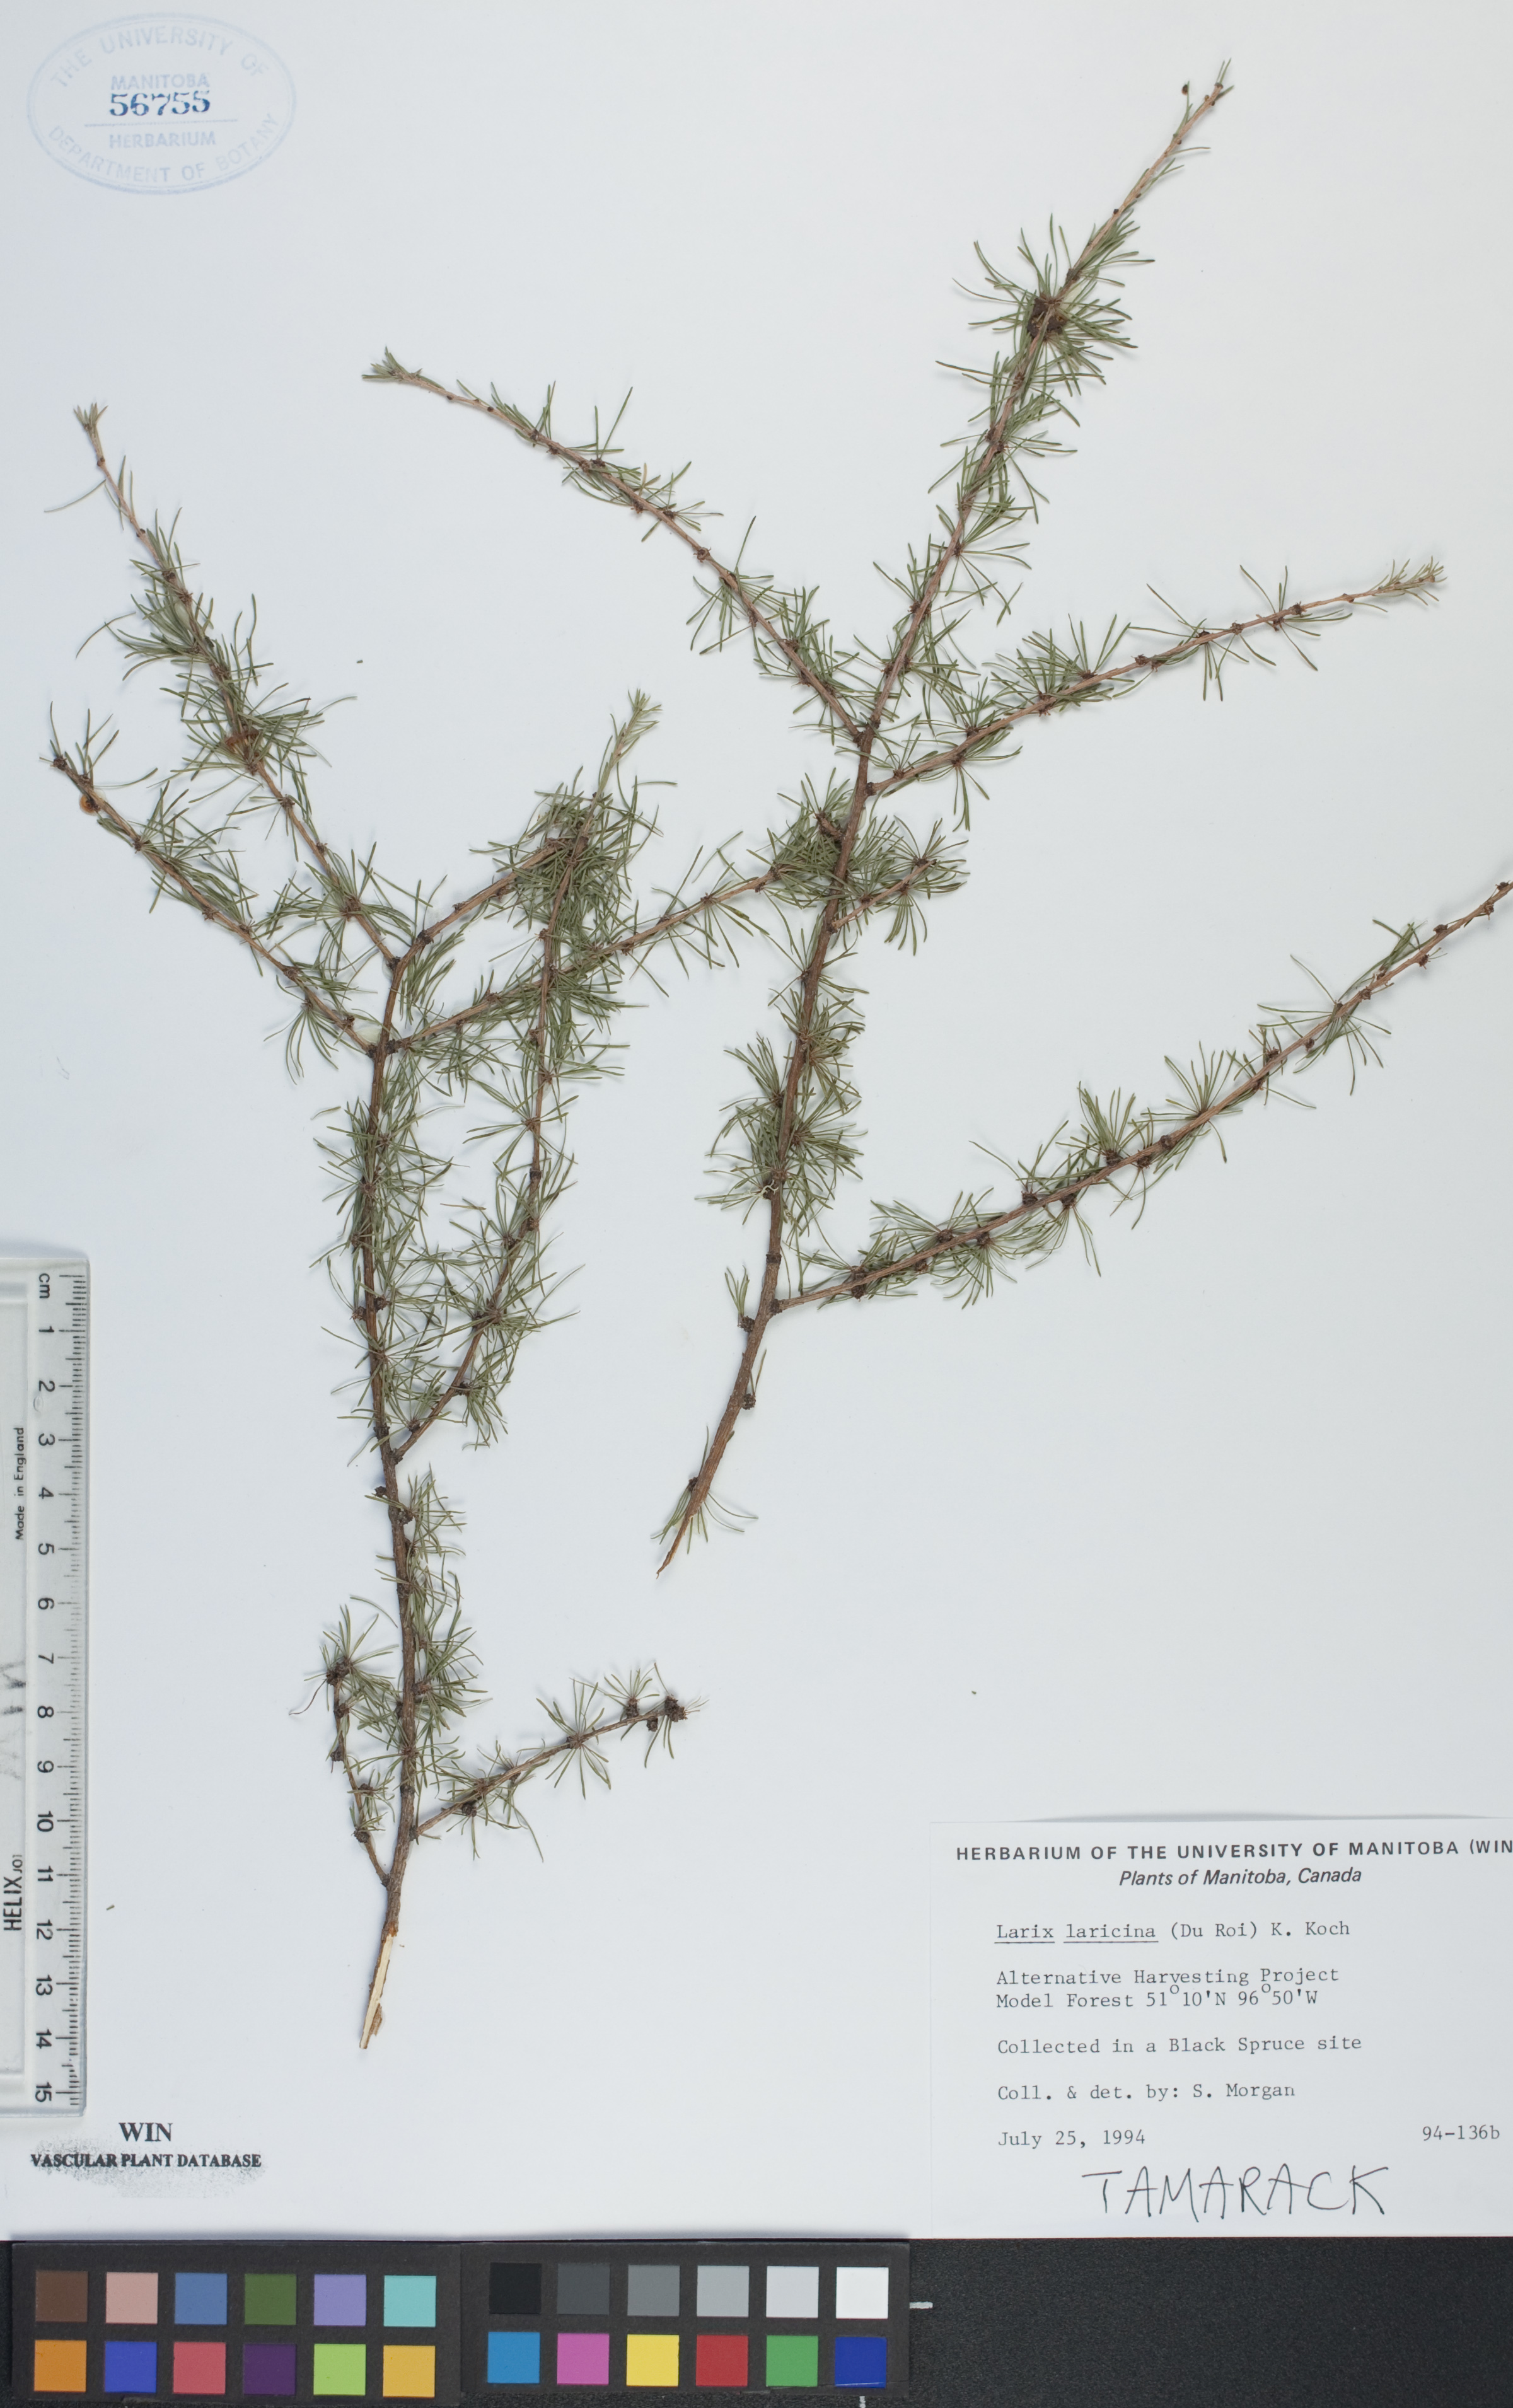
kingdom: Plantae
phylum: Tracheophyta
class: Pinopsida
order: Pinales
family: Pinaceae
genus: Larix
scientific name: Larix laricina
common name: American larch
